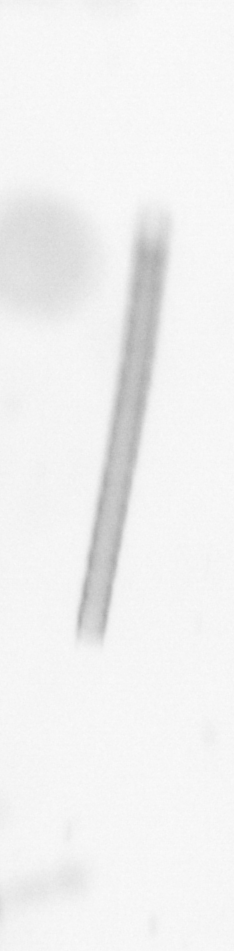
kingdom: Chromista
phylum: Ochrophyta
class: Bacillariophyceae
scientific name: Bacillariophyceae
